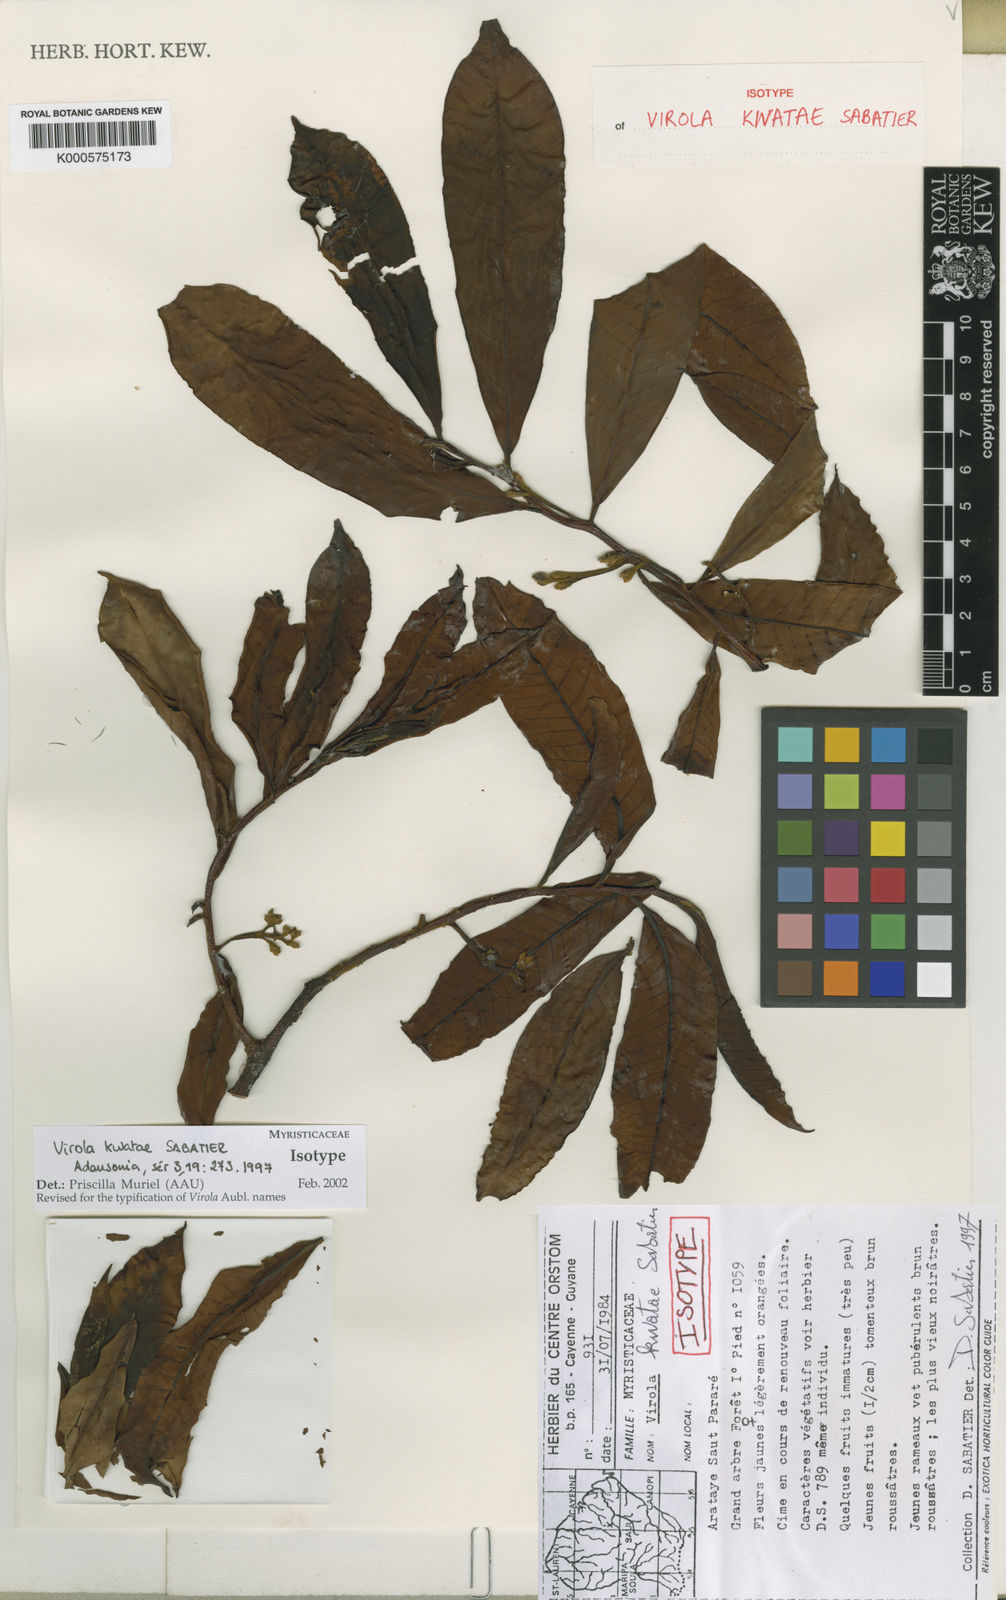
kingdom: Plantae
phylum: Tracheophyta
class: Magnoliopsida
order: Magnoliales
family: Myristicaceae
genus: Virola
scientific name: Virola kwatae
